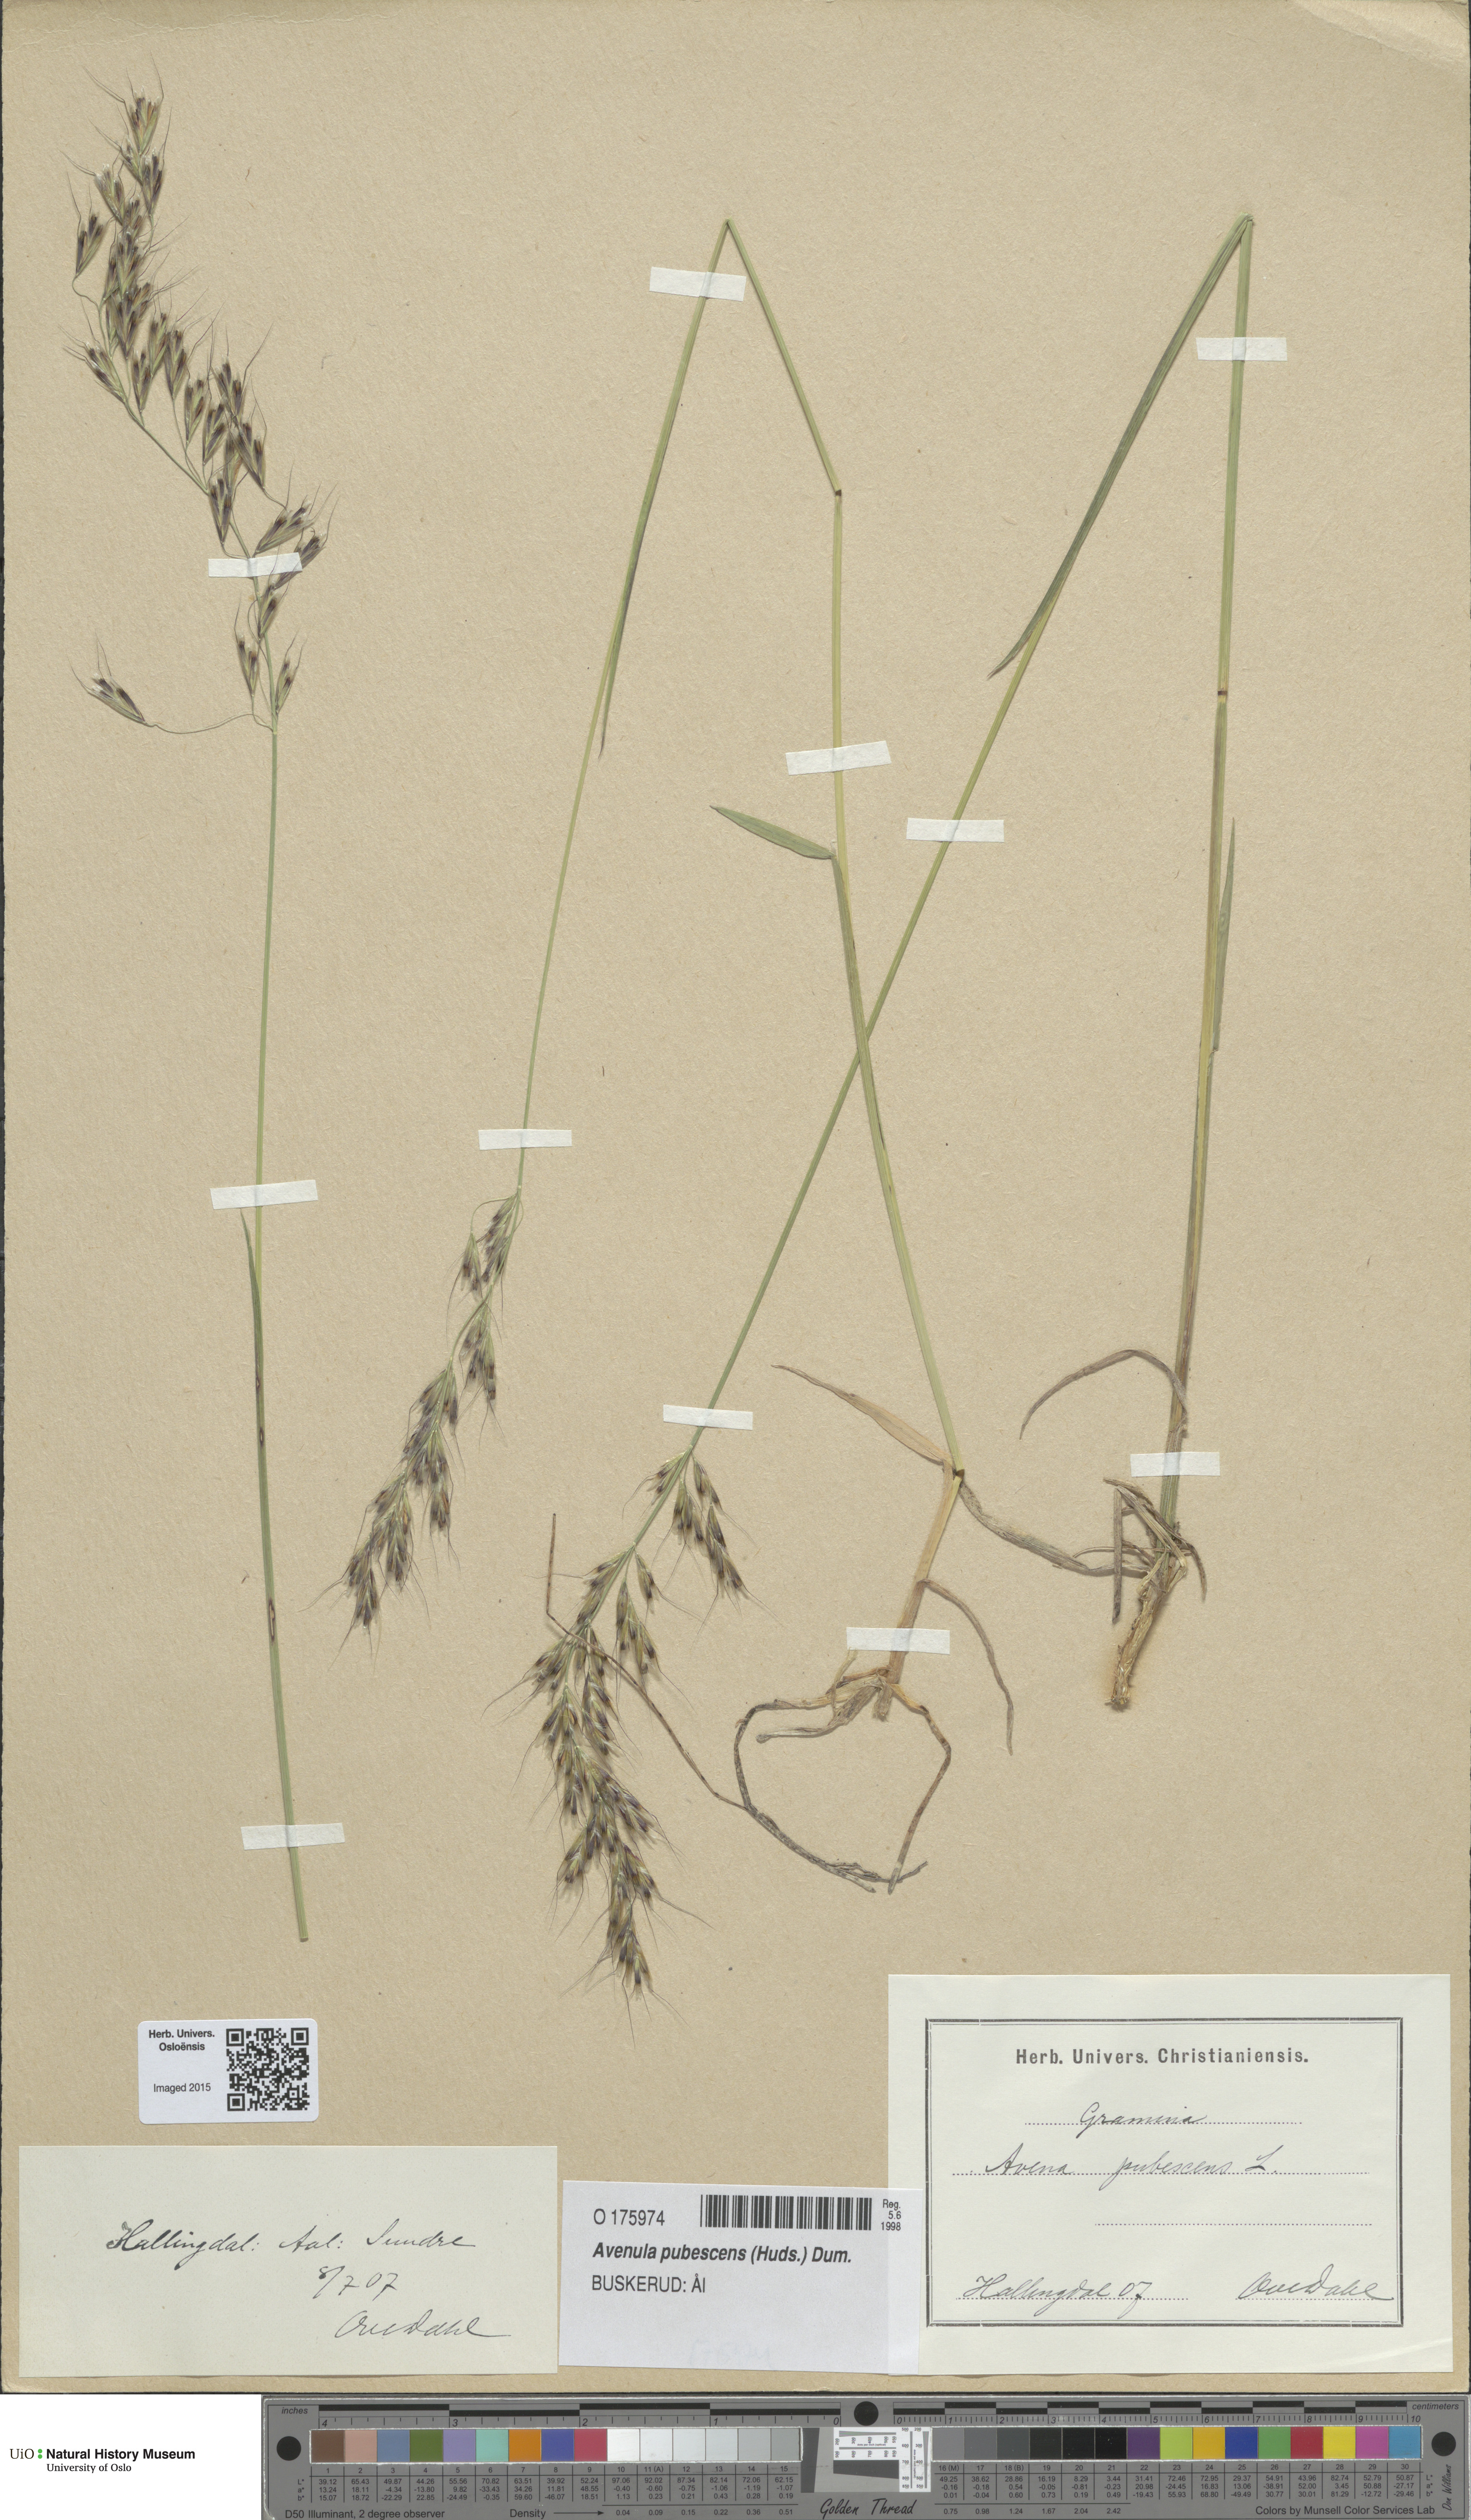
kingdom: Plantae
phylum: Tracheophyta
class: Liliopsida
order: Poales
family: Poaceae
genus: Avenula
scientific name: Avenula pubescens
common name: Downy alpine oatgrass
